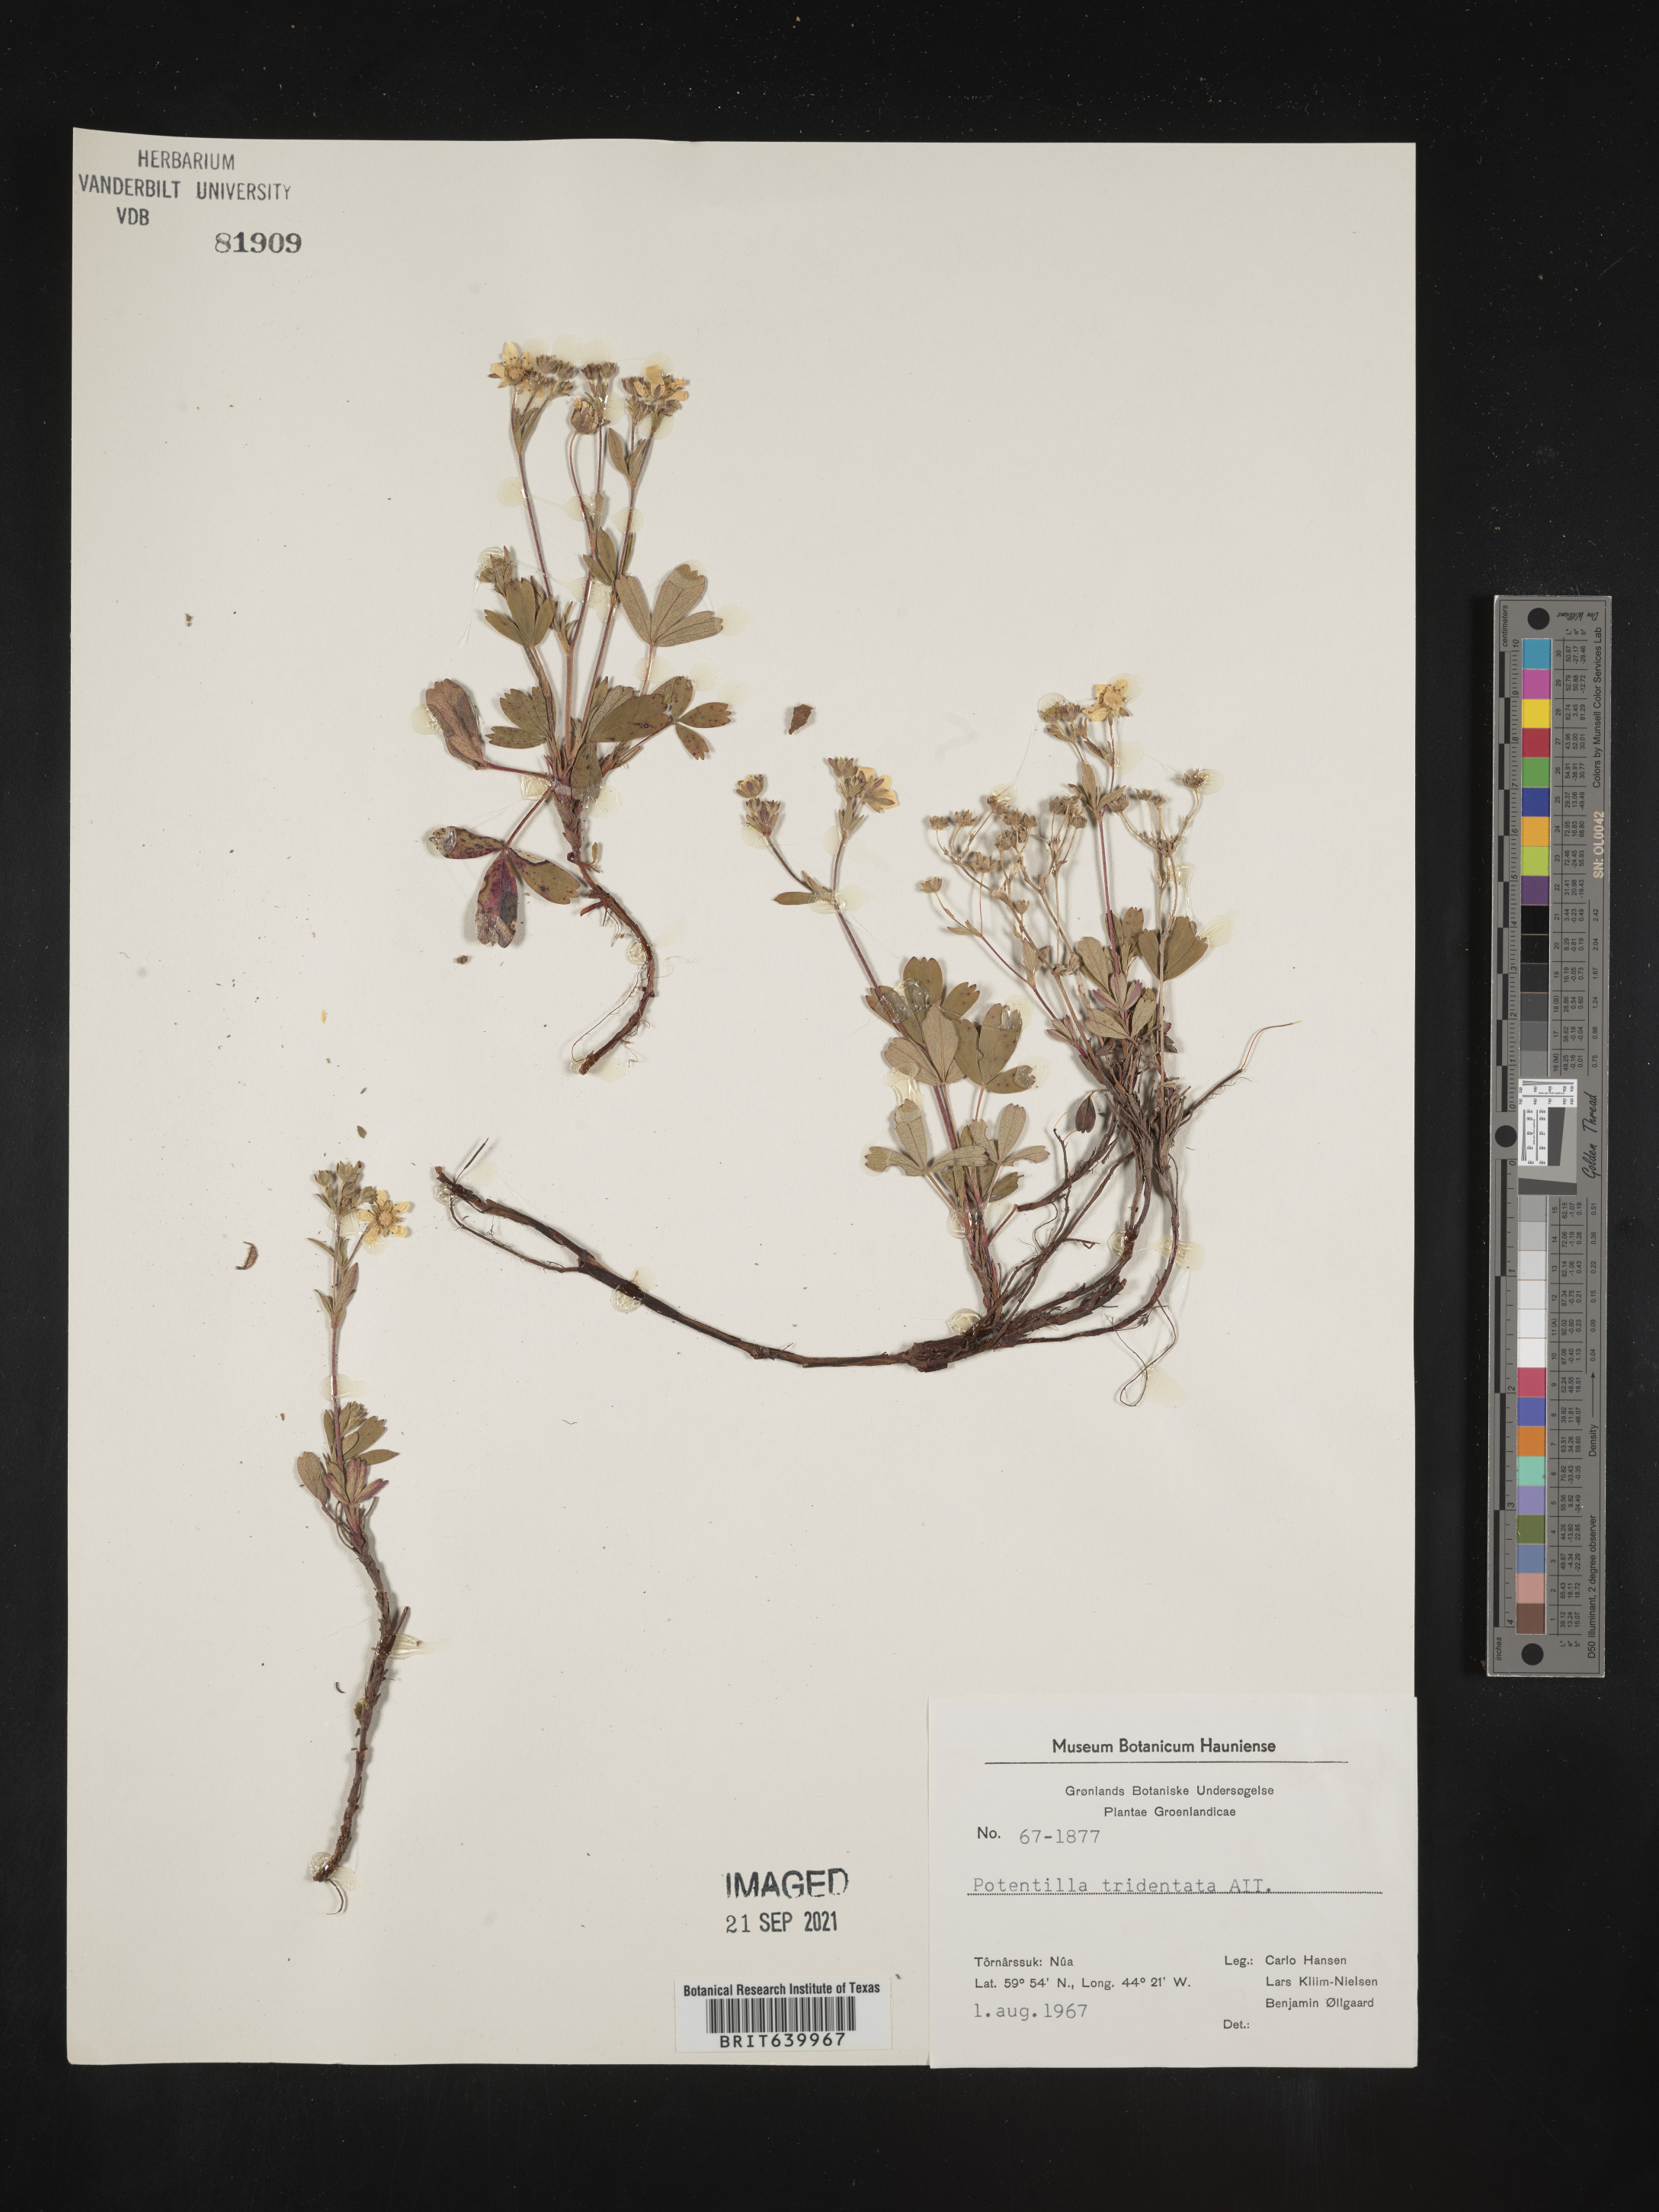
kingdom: Plantae
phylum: Tracheophyta
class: Magnoliopsida
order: Rosales
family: Rosaceae
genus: Potentilla
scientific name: Potentilla
